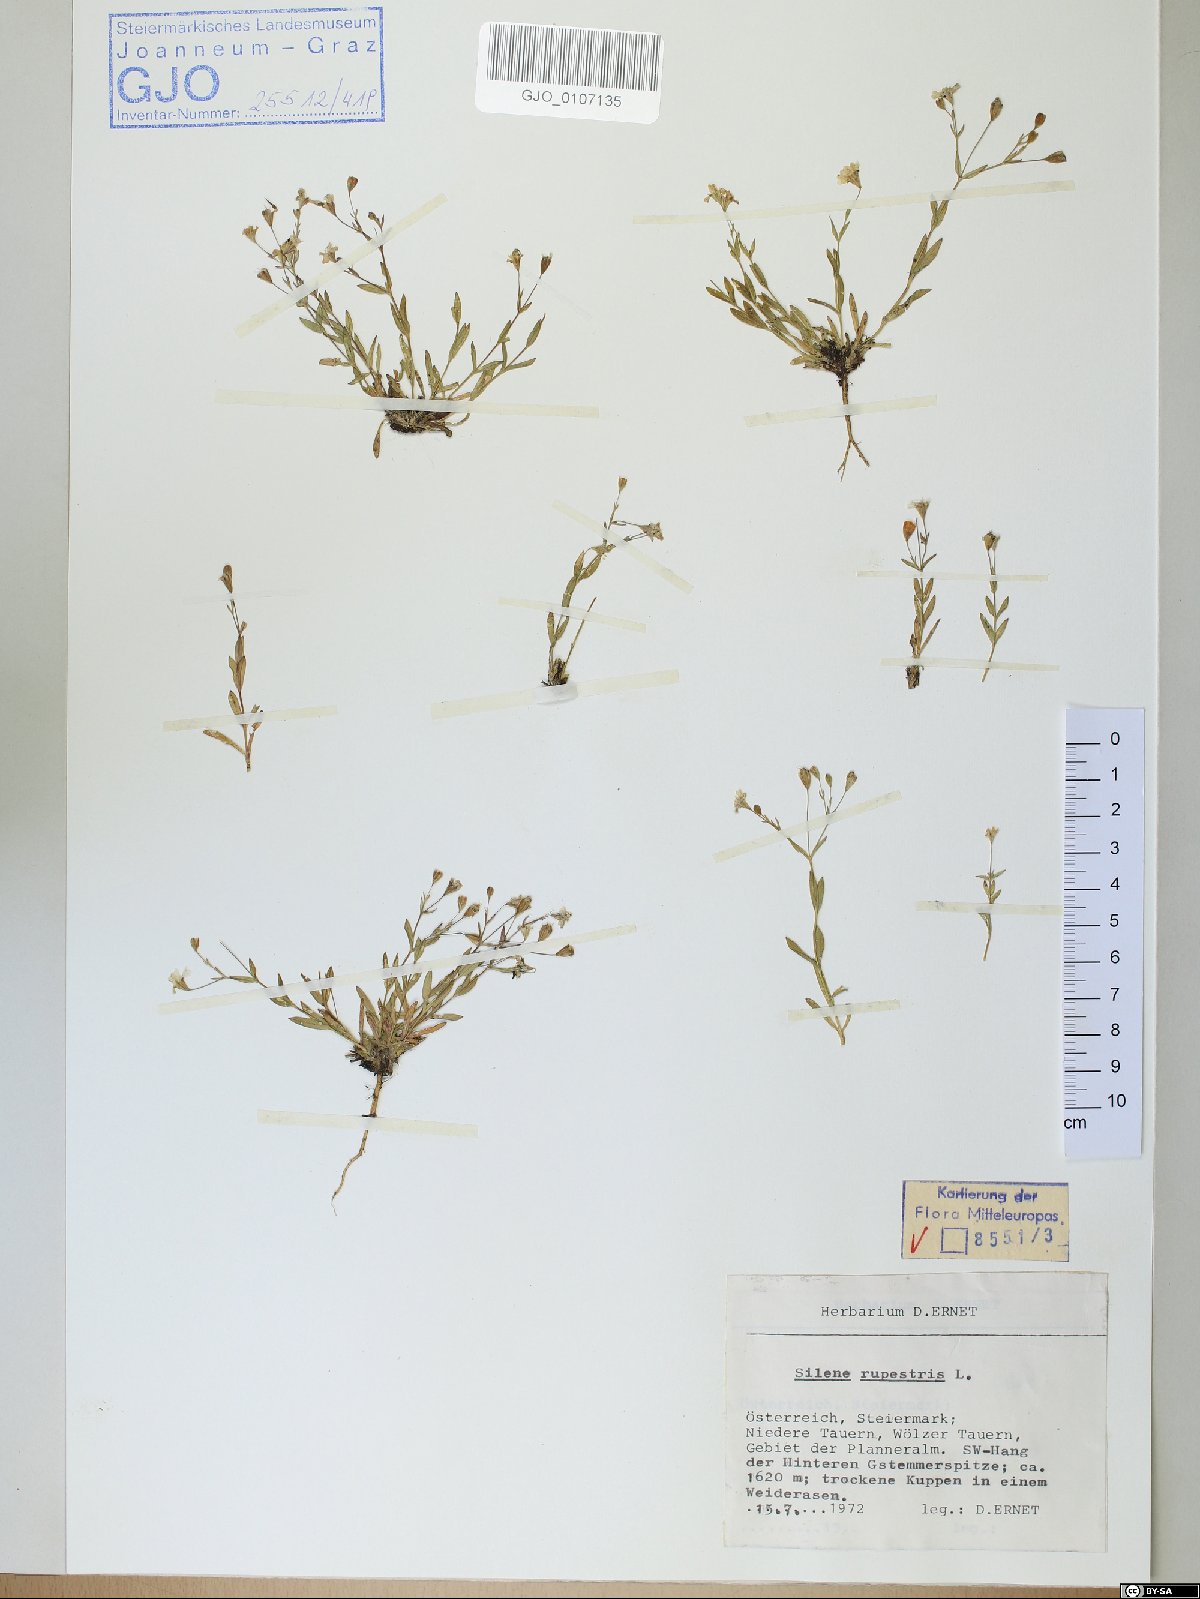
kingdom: Plantae
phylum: Tracheophyta
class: Magnoliopsida
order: Caryophyllales
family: Caryophyllaceae
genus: Atocion
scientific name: Atocion rupestre
